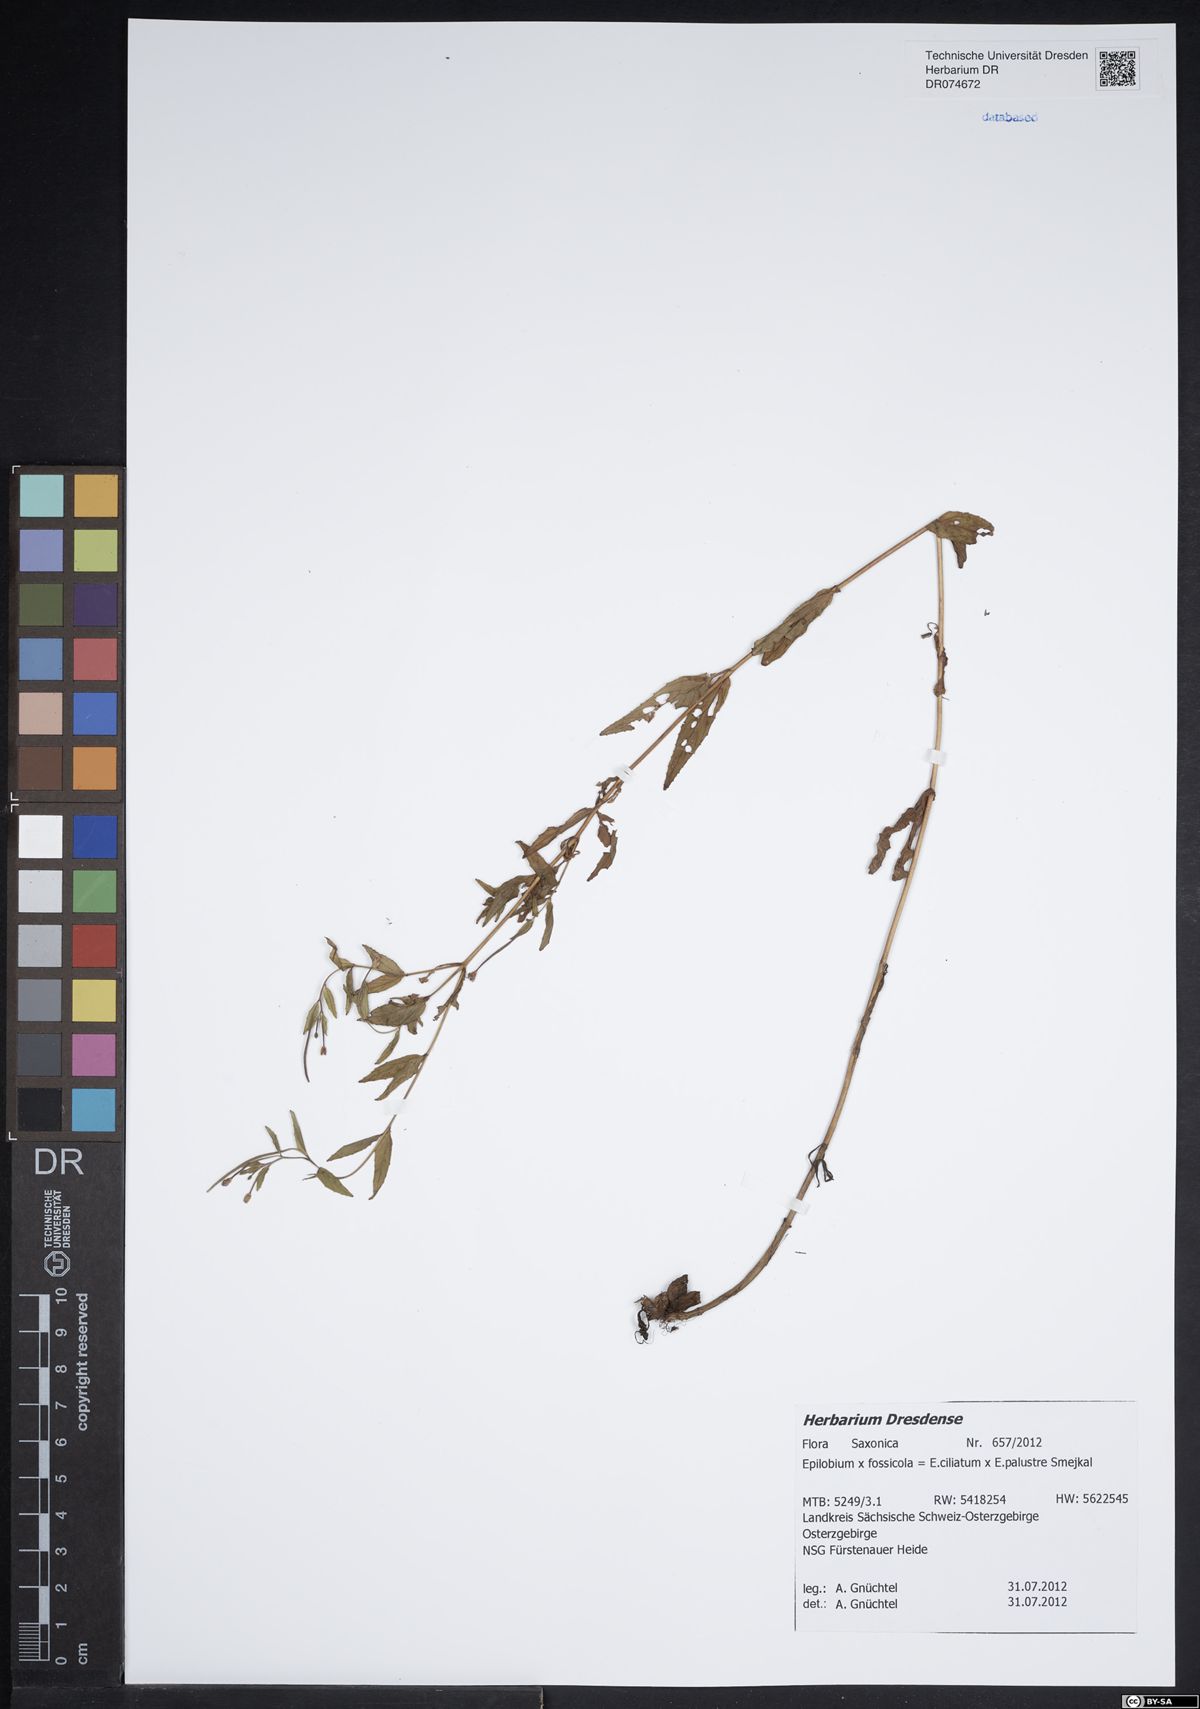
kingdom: Plantae
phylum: Tracheophyta
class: Magnoliopsida
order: Myrtales
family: Onagraceae
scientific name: Onagraceae
